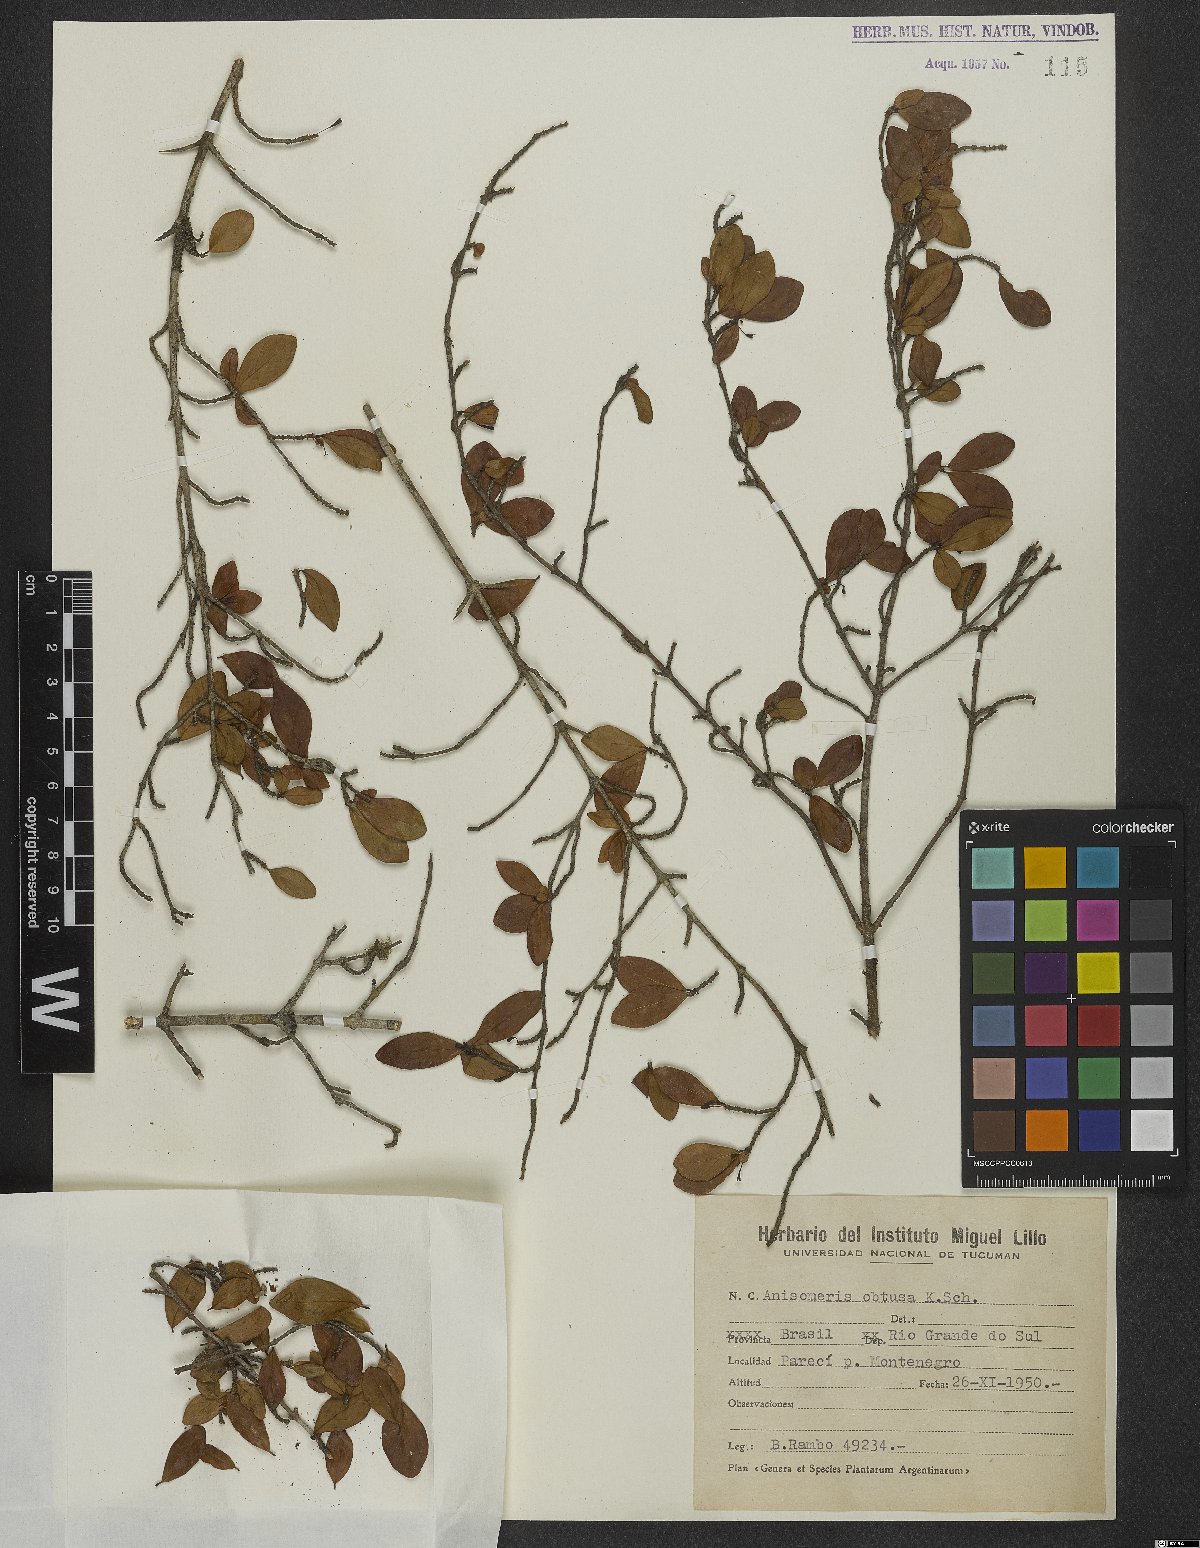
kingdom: Plantae
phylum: Tracheophyta
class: Magnoliopsida
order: Gentianales
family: Rubiaceae
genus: Chomelia
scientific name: Chomelia obtusa
